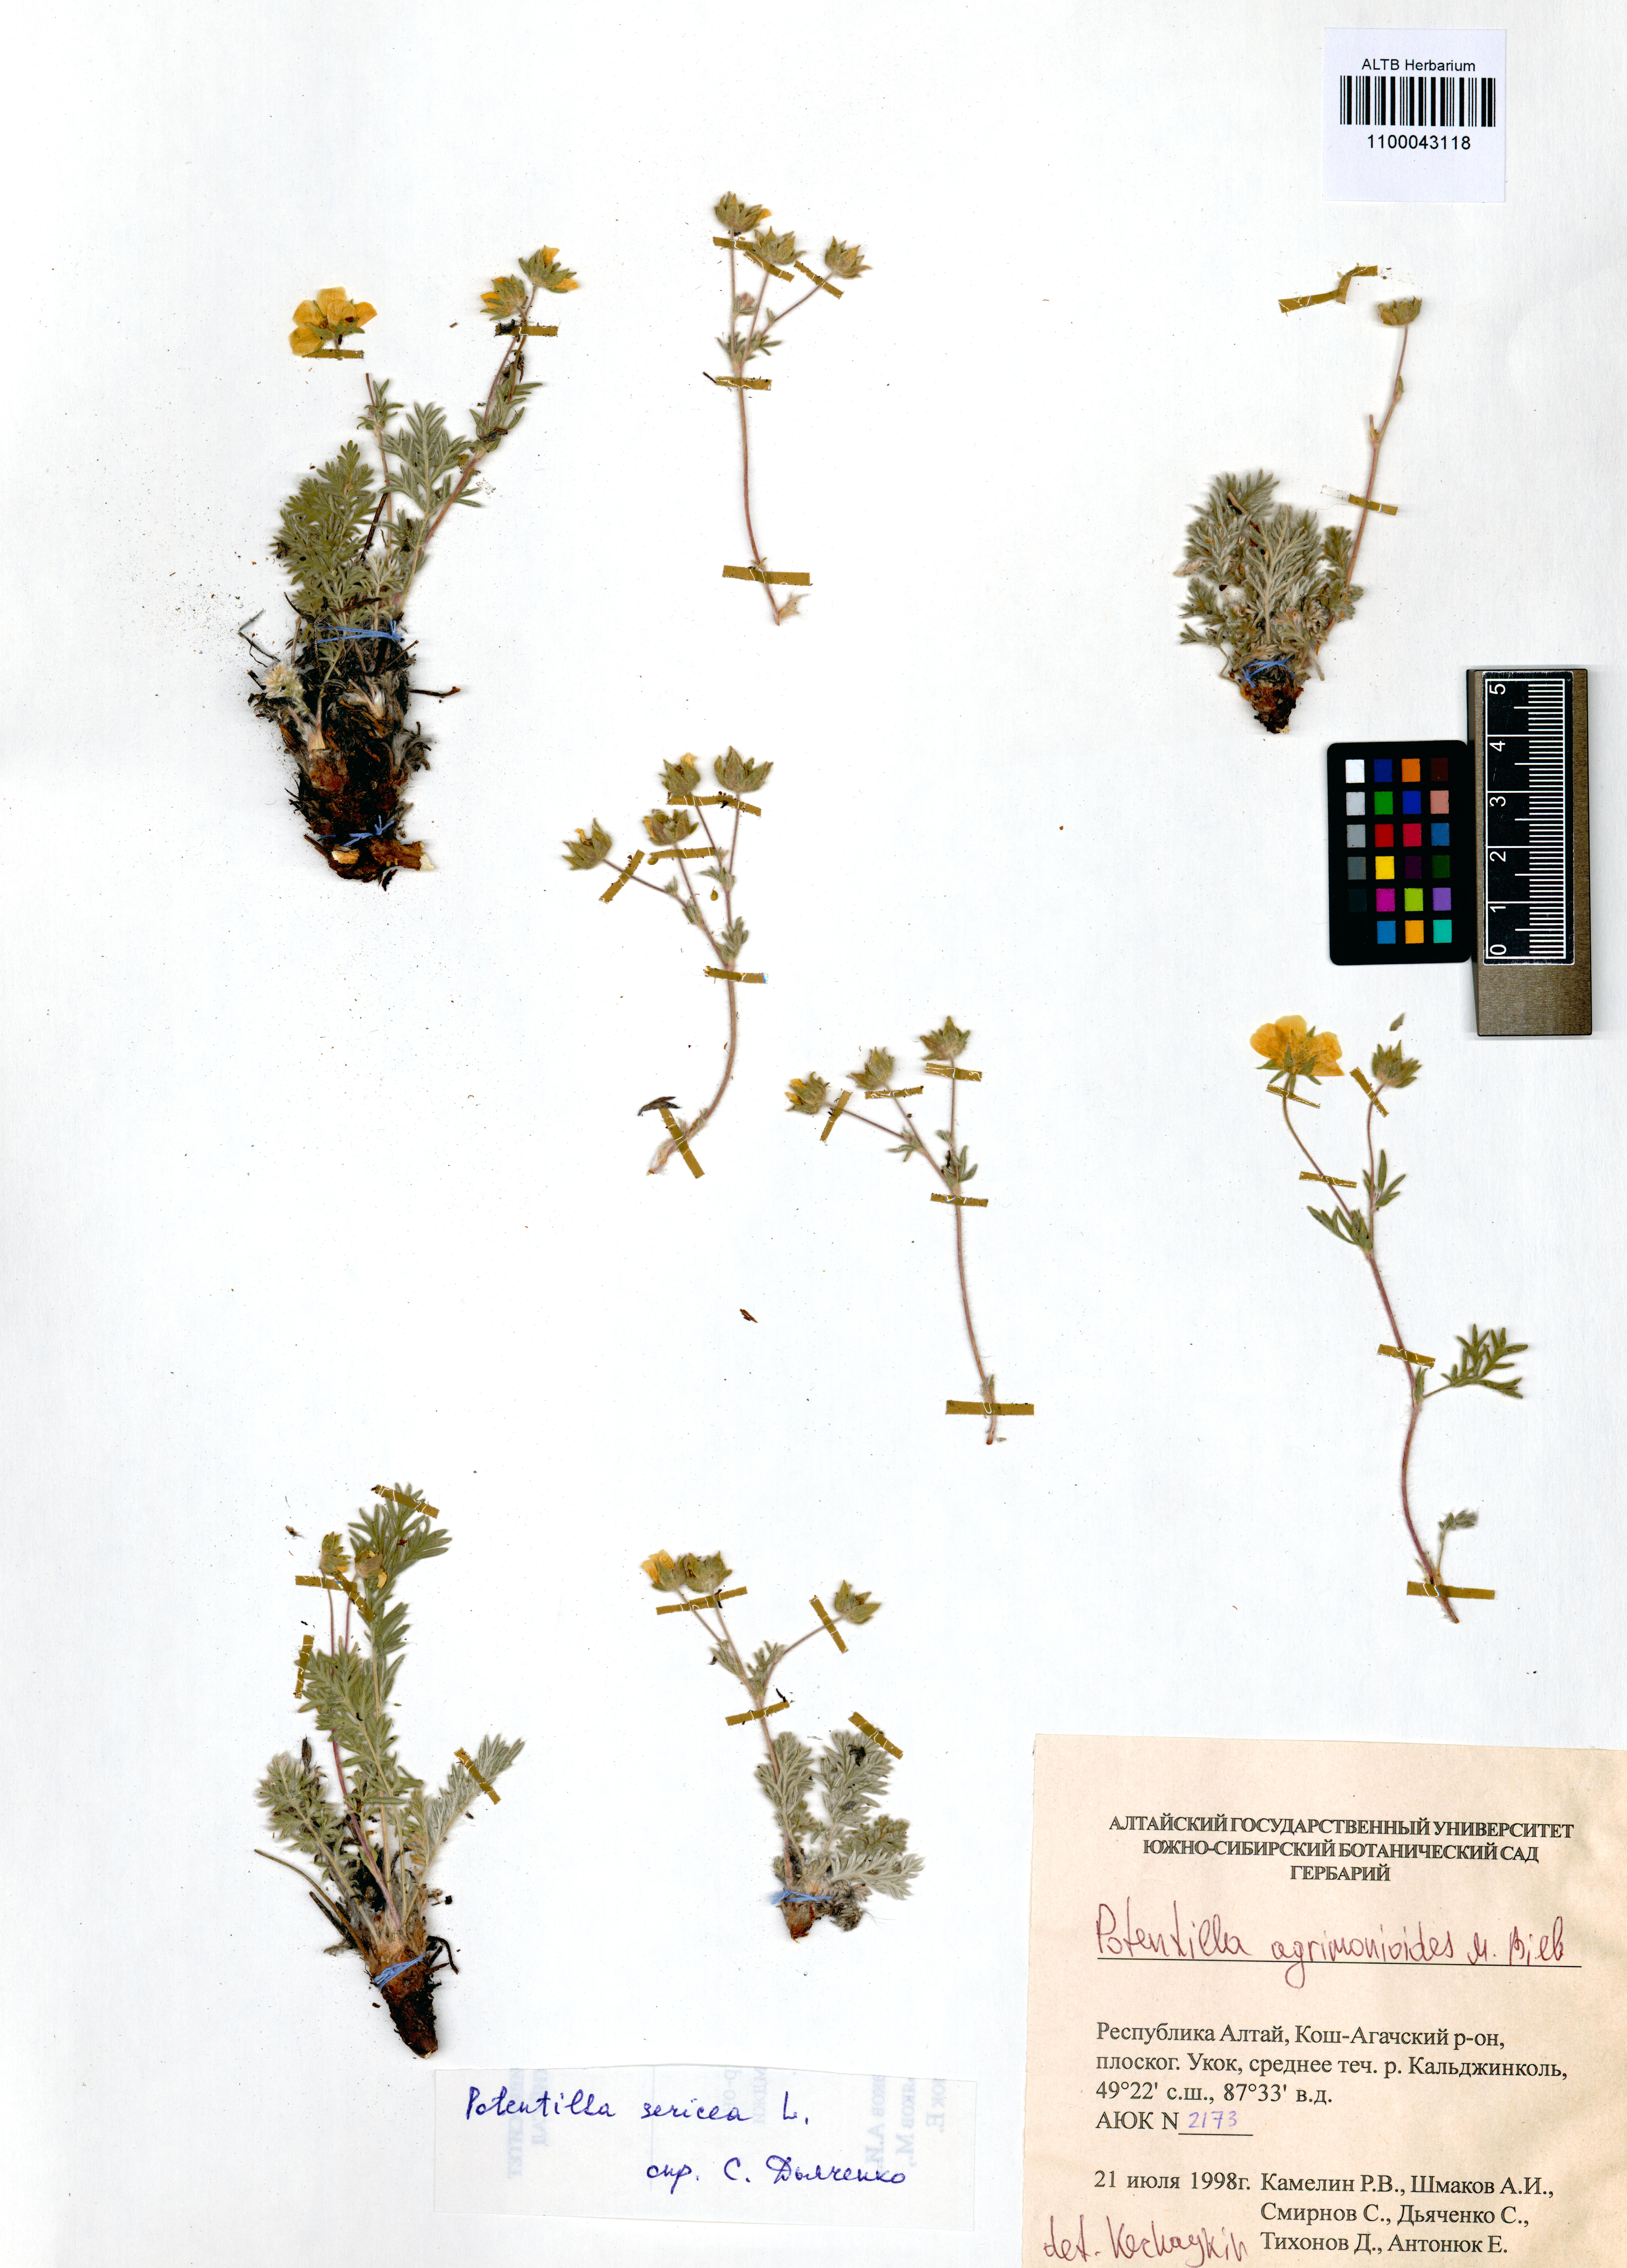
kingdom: Plantae
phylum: Tracheophyta
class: Magnoliopsida
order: Rosales
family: Rosaceae
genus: Potentilla
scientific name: Potentilla agrimonioides
